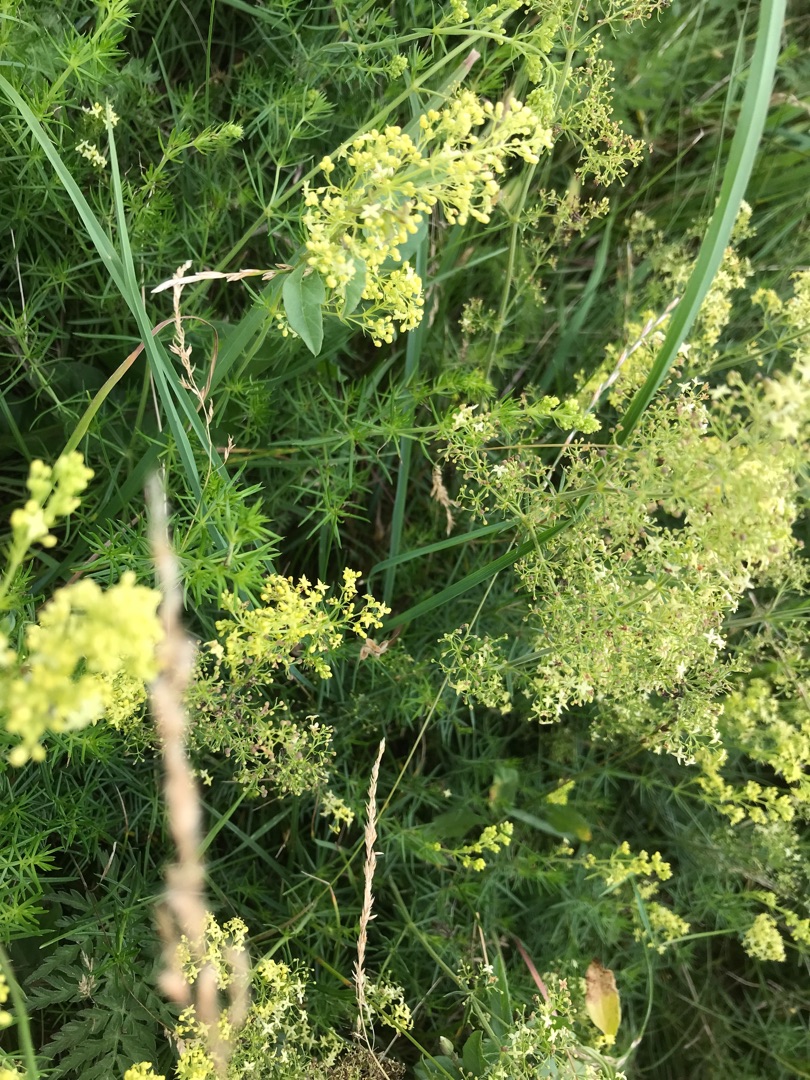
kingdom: Plantae
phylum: Tracheophyta
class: Magnoliopsida
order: Gentianales
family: Rubiaceae
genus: Galium
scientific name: Galium
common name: Hvidgul snerre
